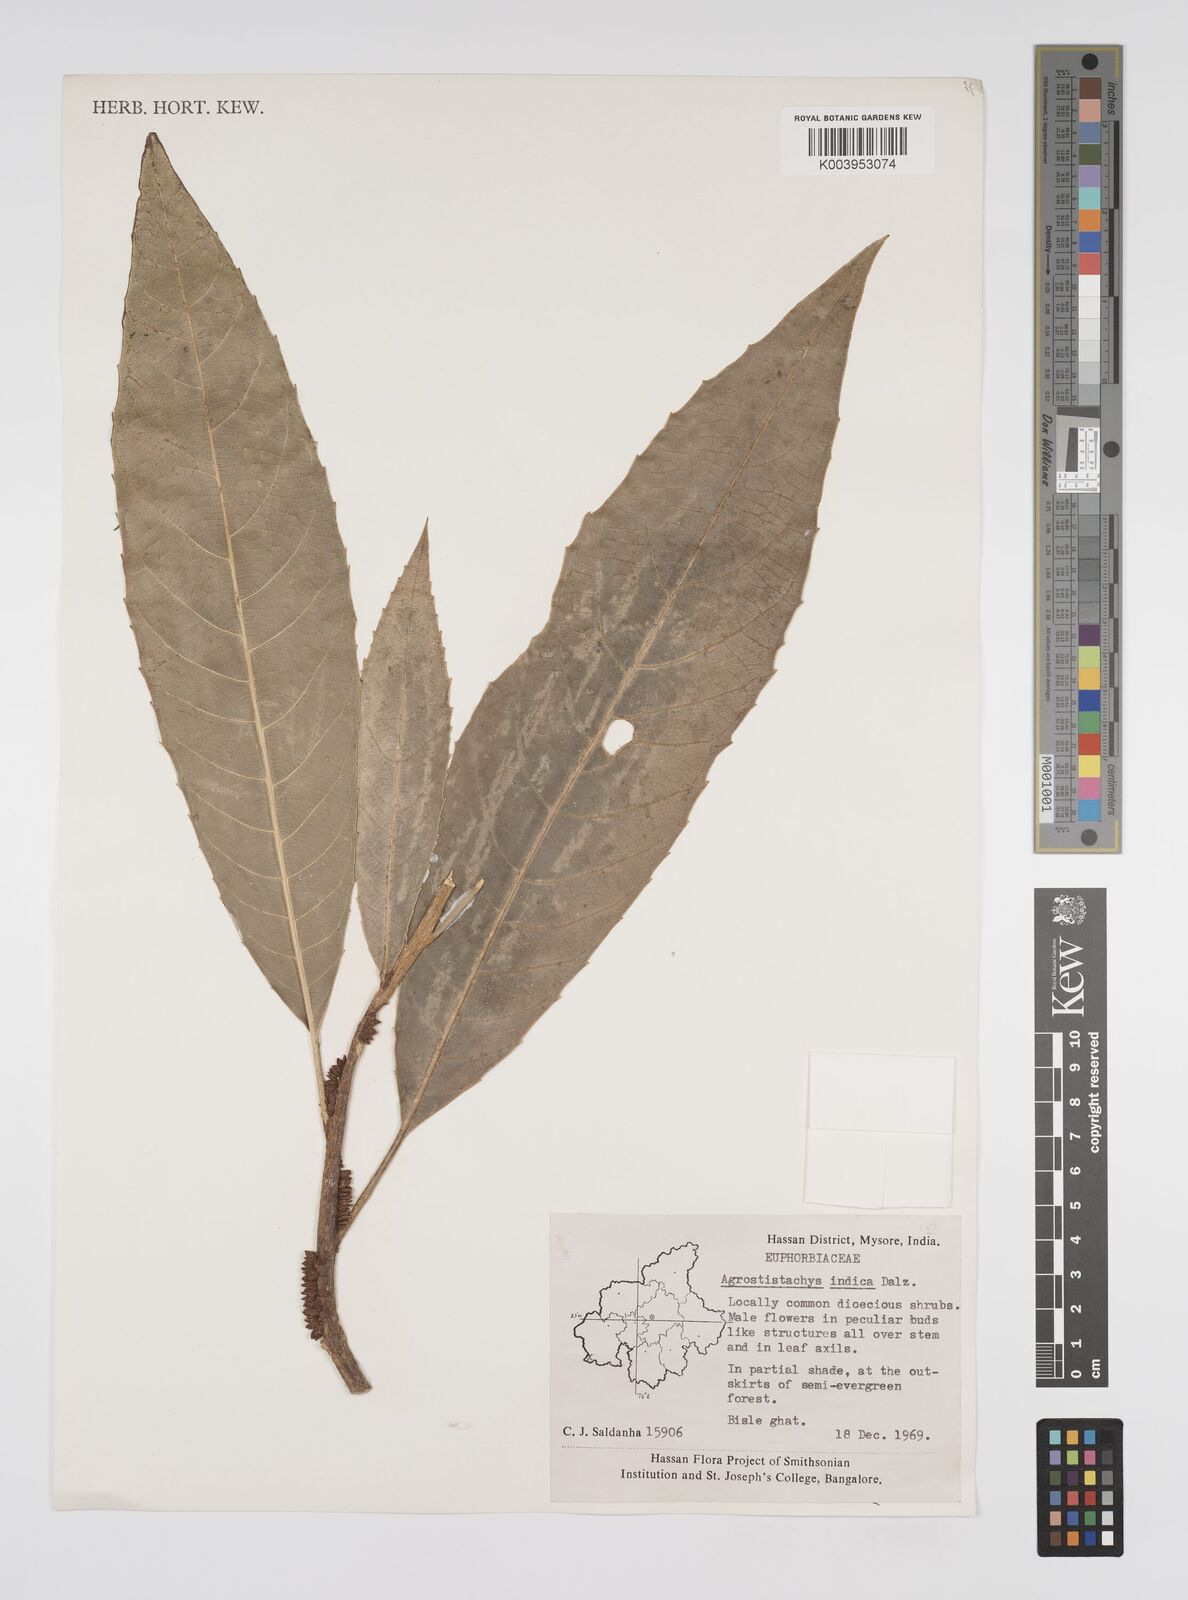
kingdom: Plantae
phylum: Tracheophyta
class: Magnoliopsida
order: Malpighiales
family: Euphorbiaceae
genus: Agrostistachys
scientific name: Agrostistachys indica
